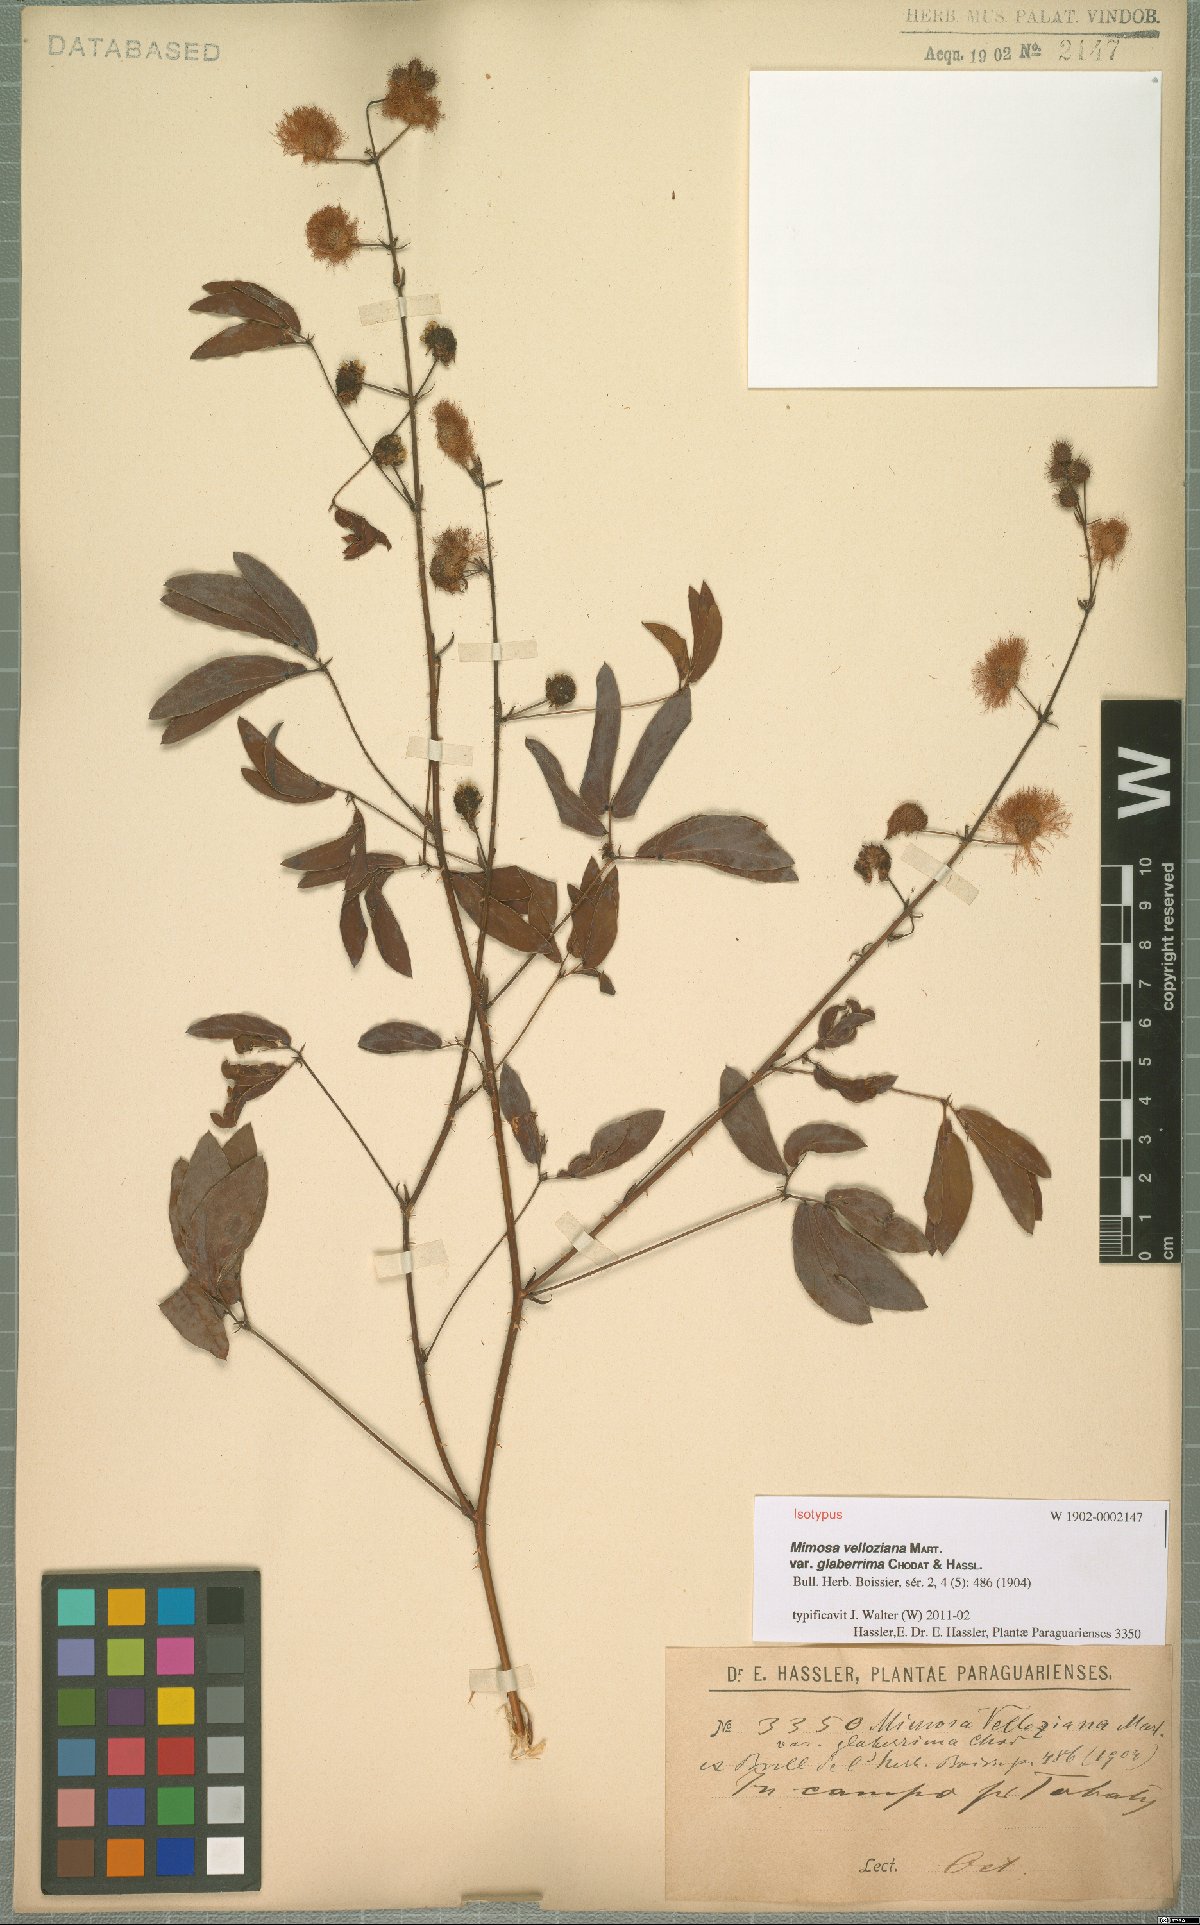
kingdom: Plantae
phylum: Tracheophyta
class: Magnoliopsida
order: Fabales
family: Fabaceae
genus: Mimosa
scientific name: Mimosa debilis
